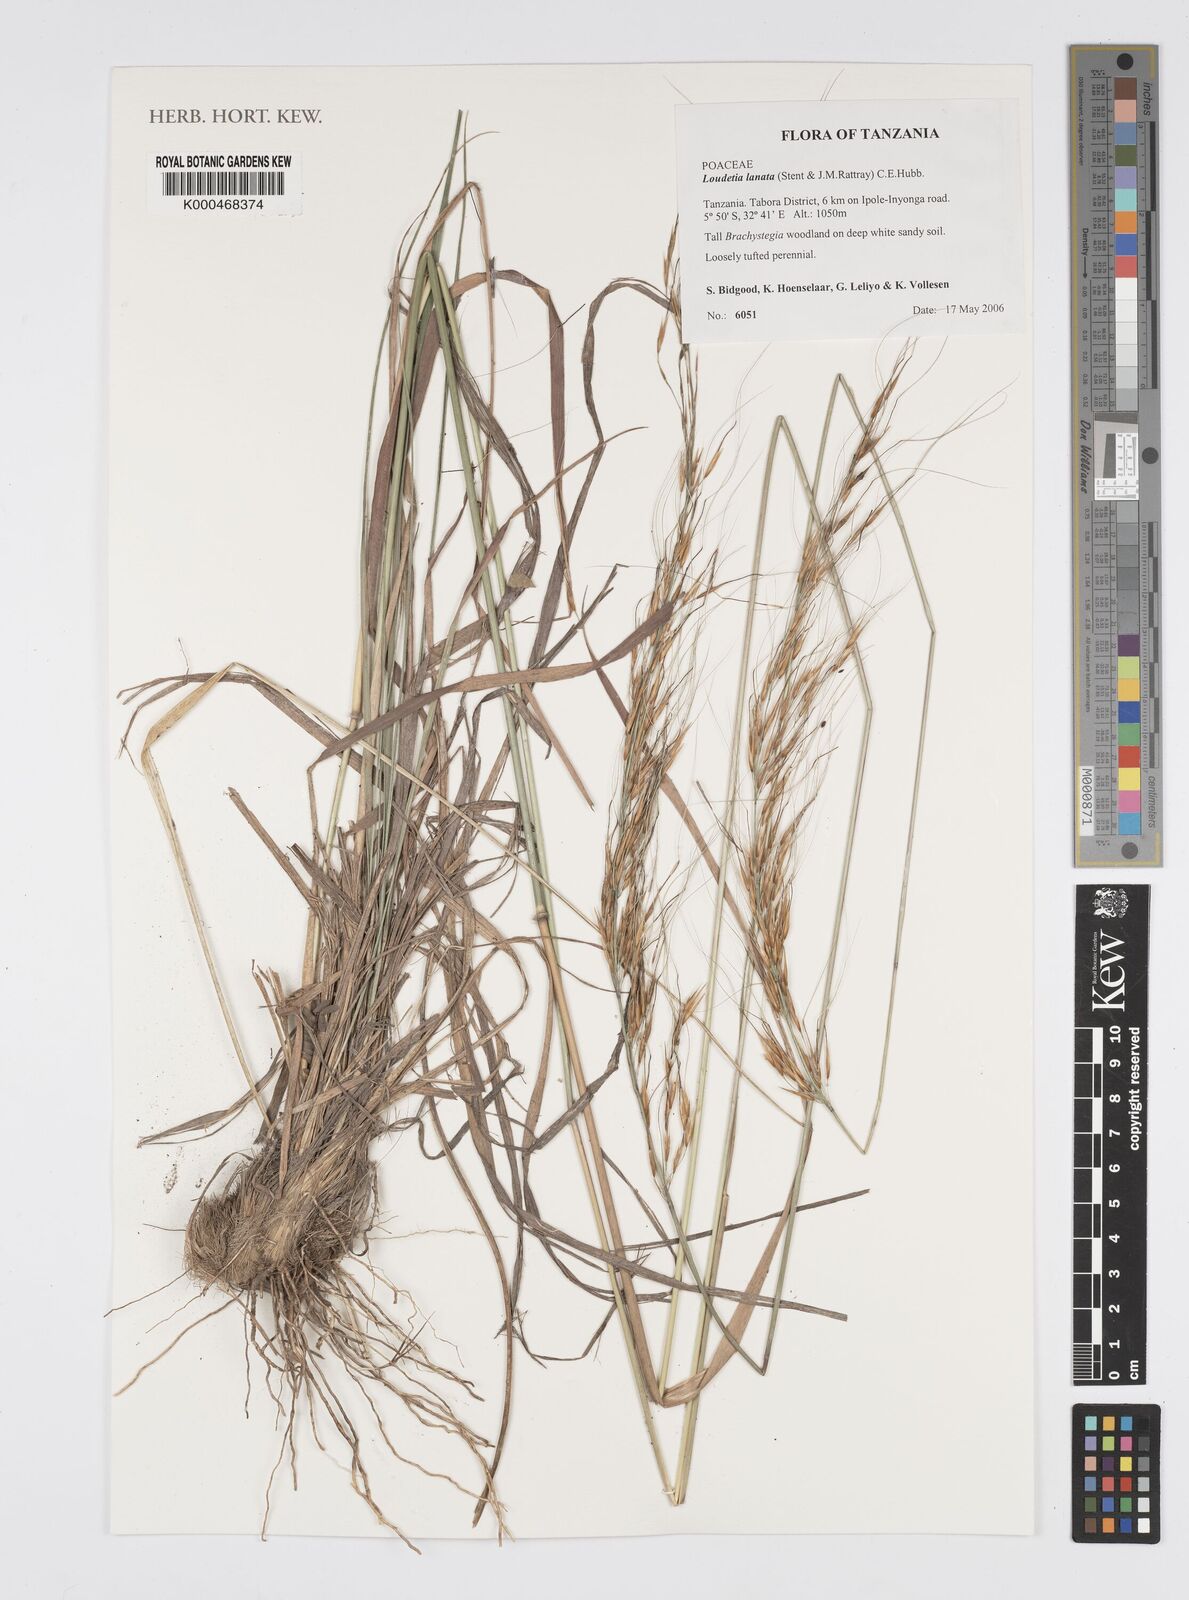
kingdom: Plantae
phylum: Tracheophyta
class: Liliopsida
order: Poales
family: Poaceae
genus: Loudetia
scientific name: Loudetia lanata
